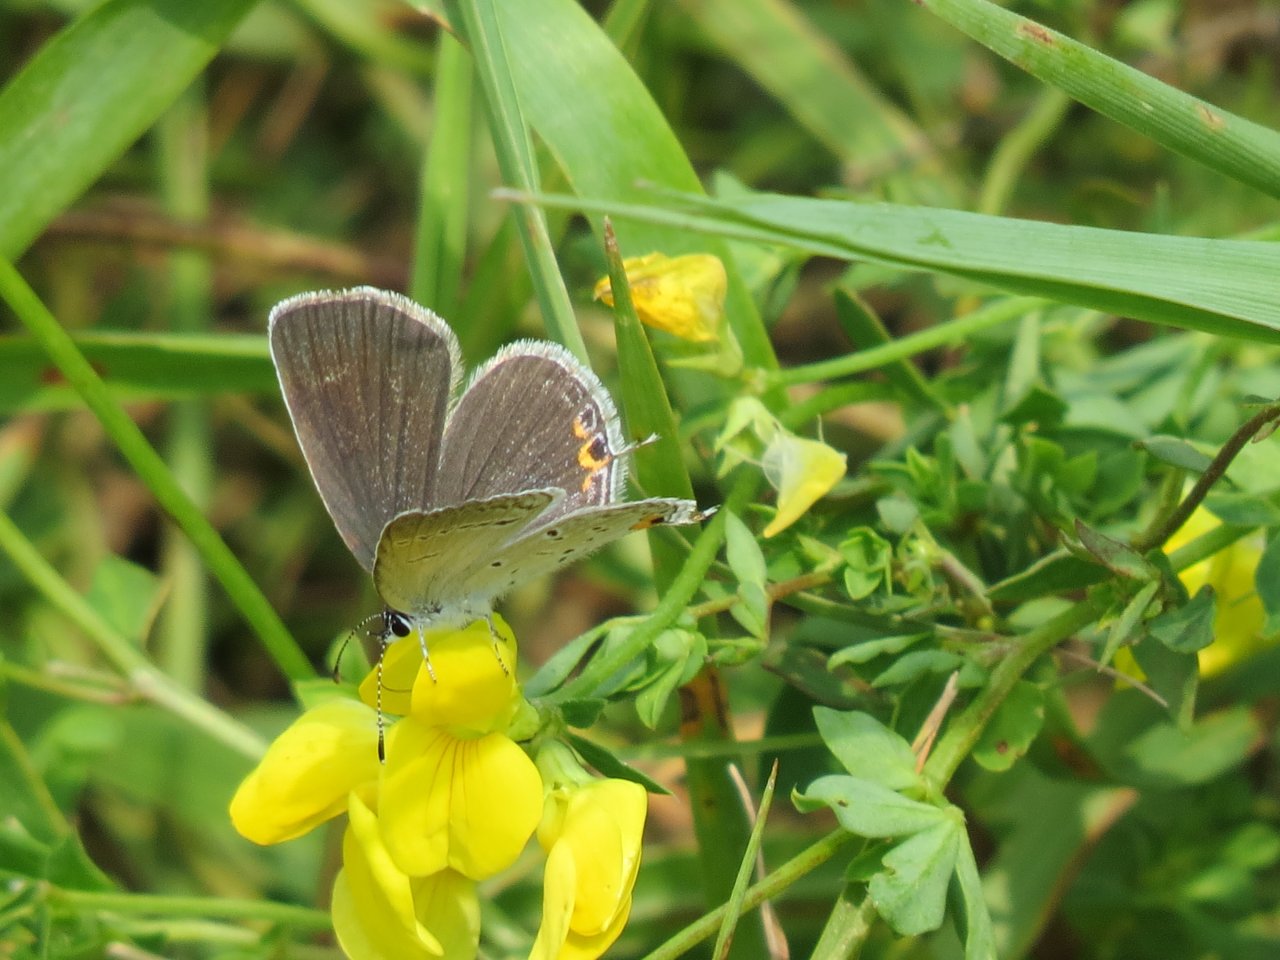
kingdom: Animalia
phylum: Arthropoda
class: Insecta
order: Lepidoptera
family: Lycaenidae
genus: Elkalyce
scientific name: Elkalyce comyntas
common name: Eastern Tailed-Blue
